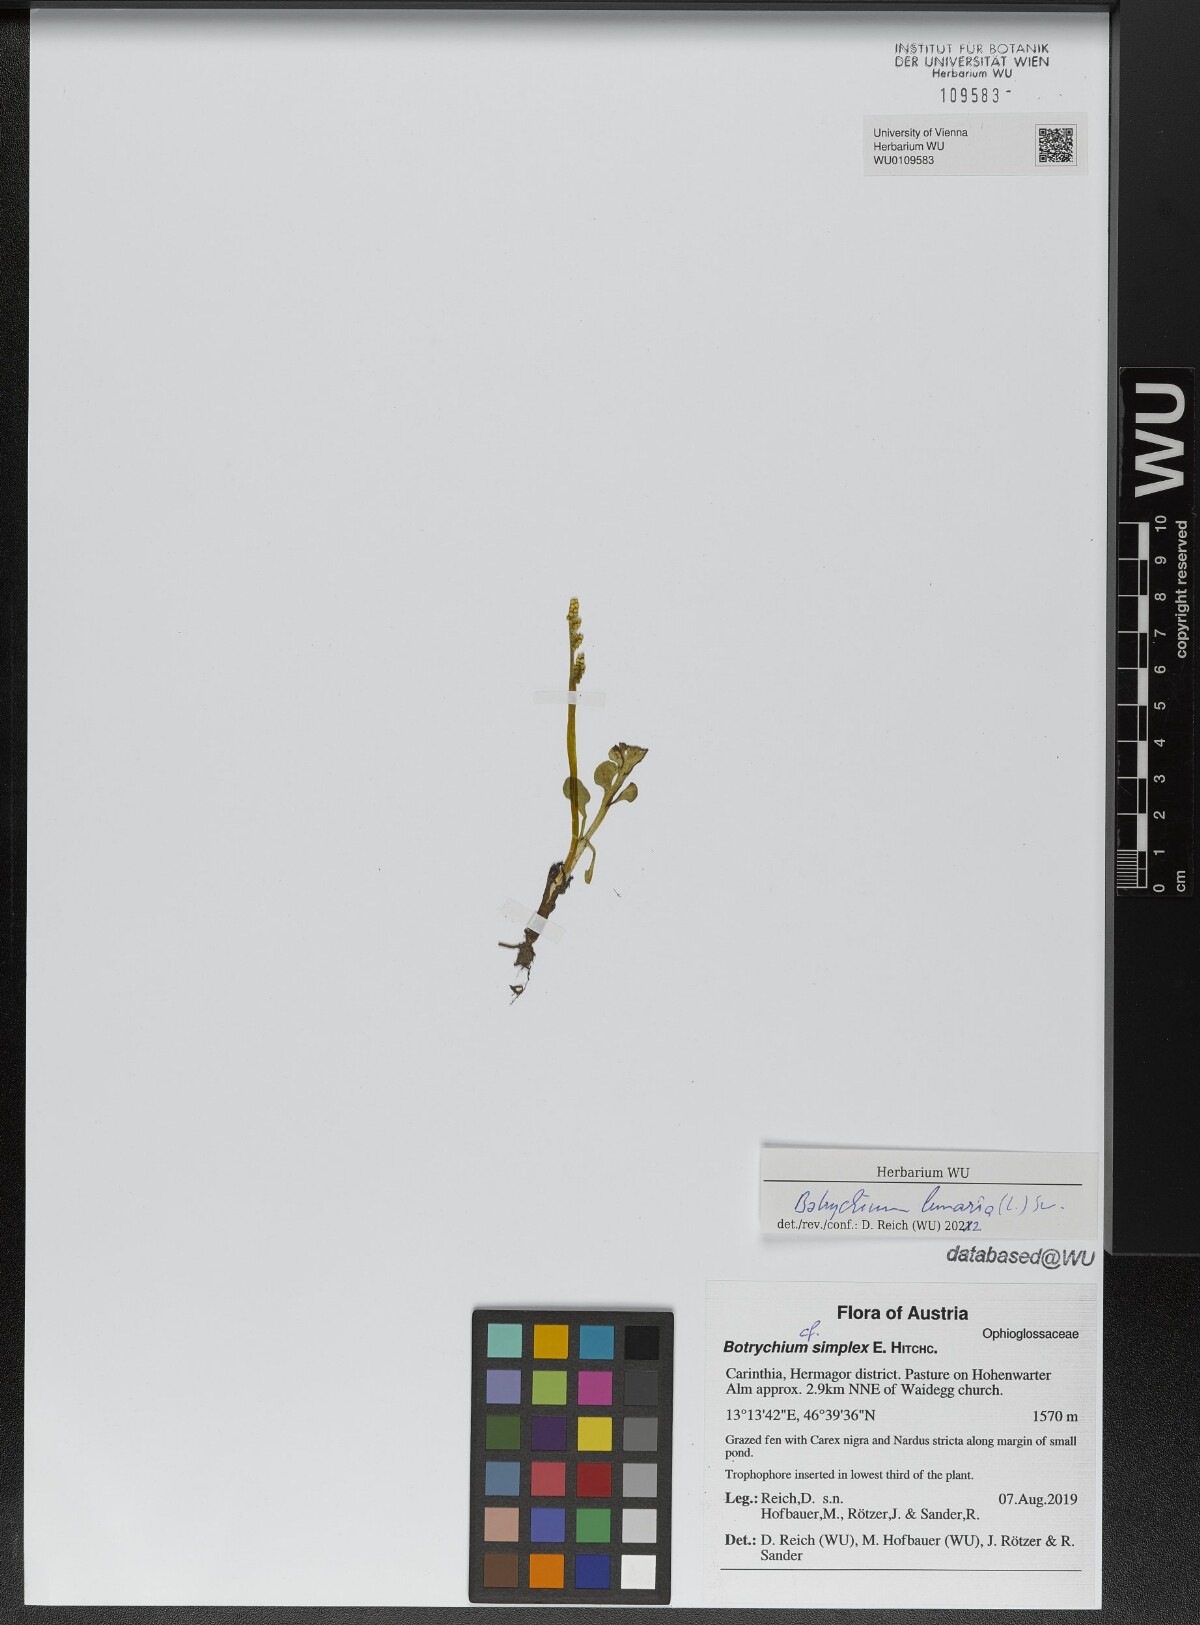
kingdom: Plantae
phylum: Tracheophyta
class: Polypodiopsida
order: Ophioglossales
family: Ophioglossaceae
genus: Botrychium
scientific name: Botrychium lunaria
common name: Moonwort
